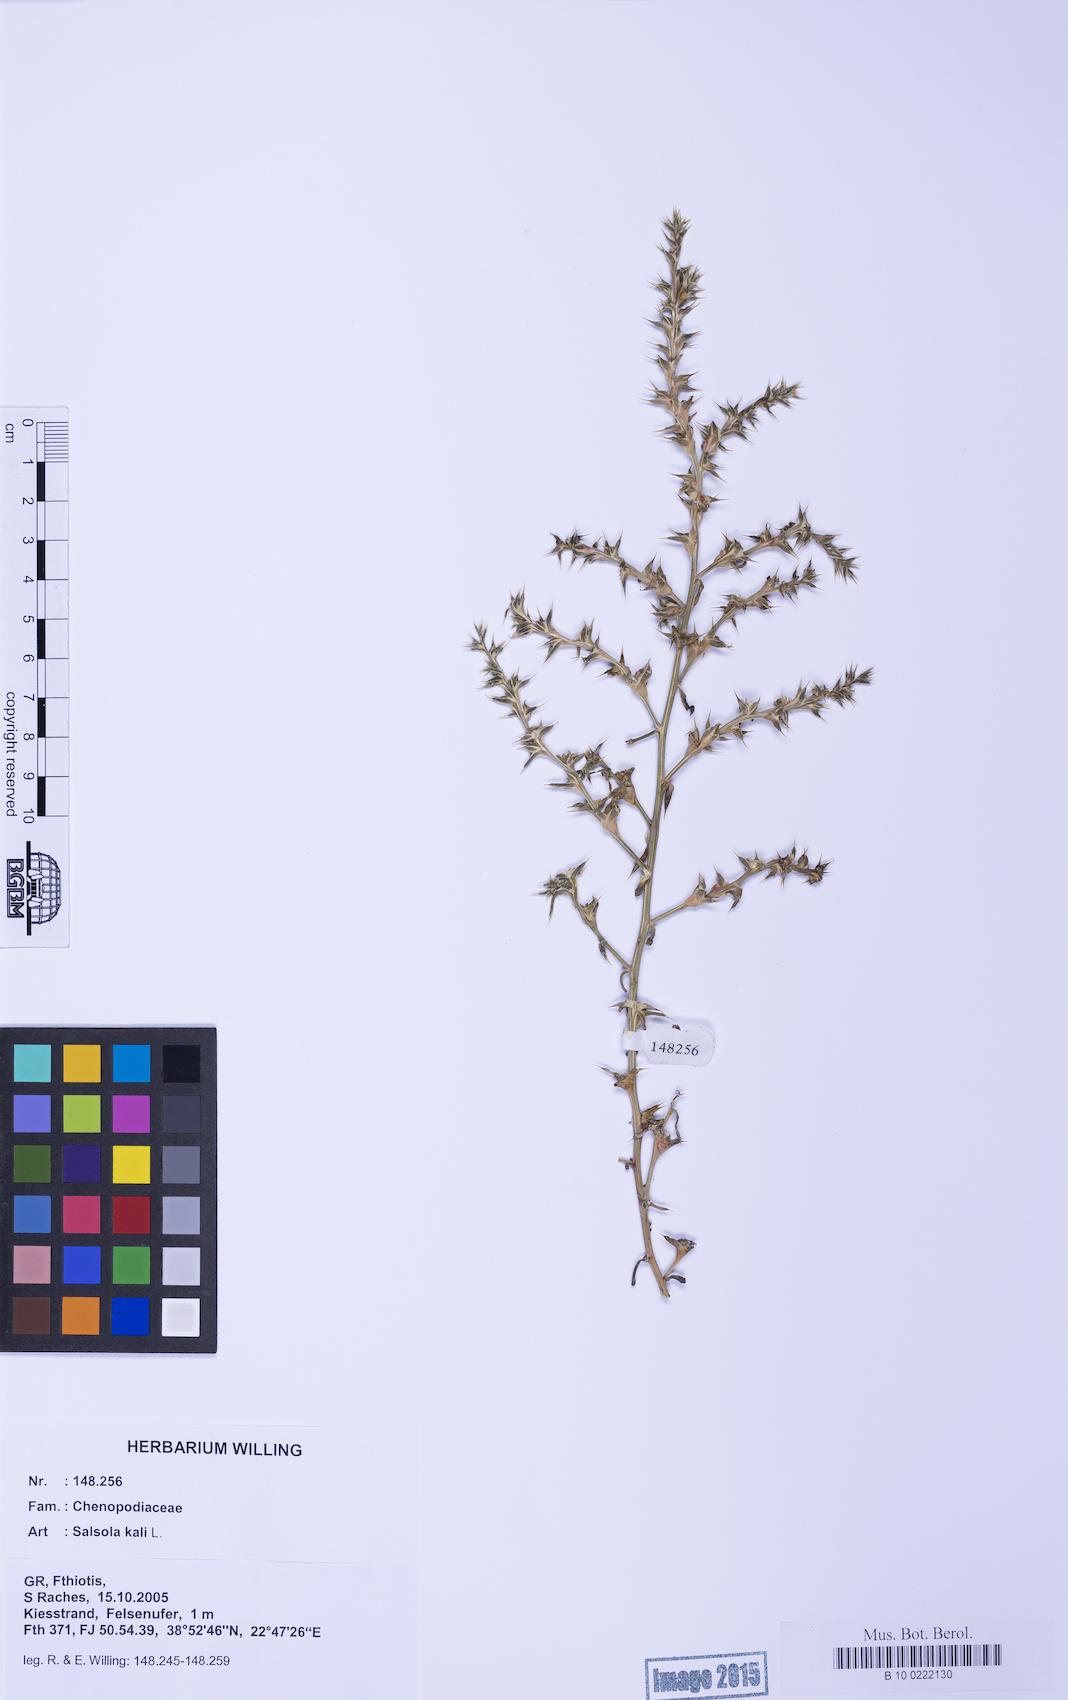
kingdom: Plantae
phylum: Tracheophyta
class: Magnoliopsida
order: Caryophyllales
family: Amaranthaceae
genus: Salsola
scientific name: Salsola kali
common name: Saltwort
